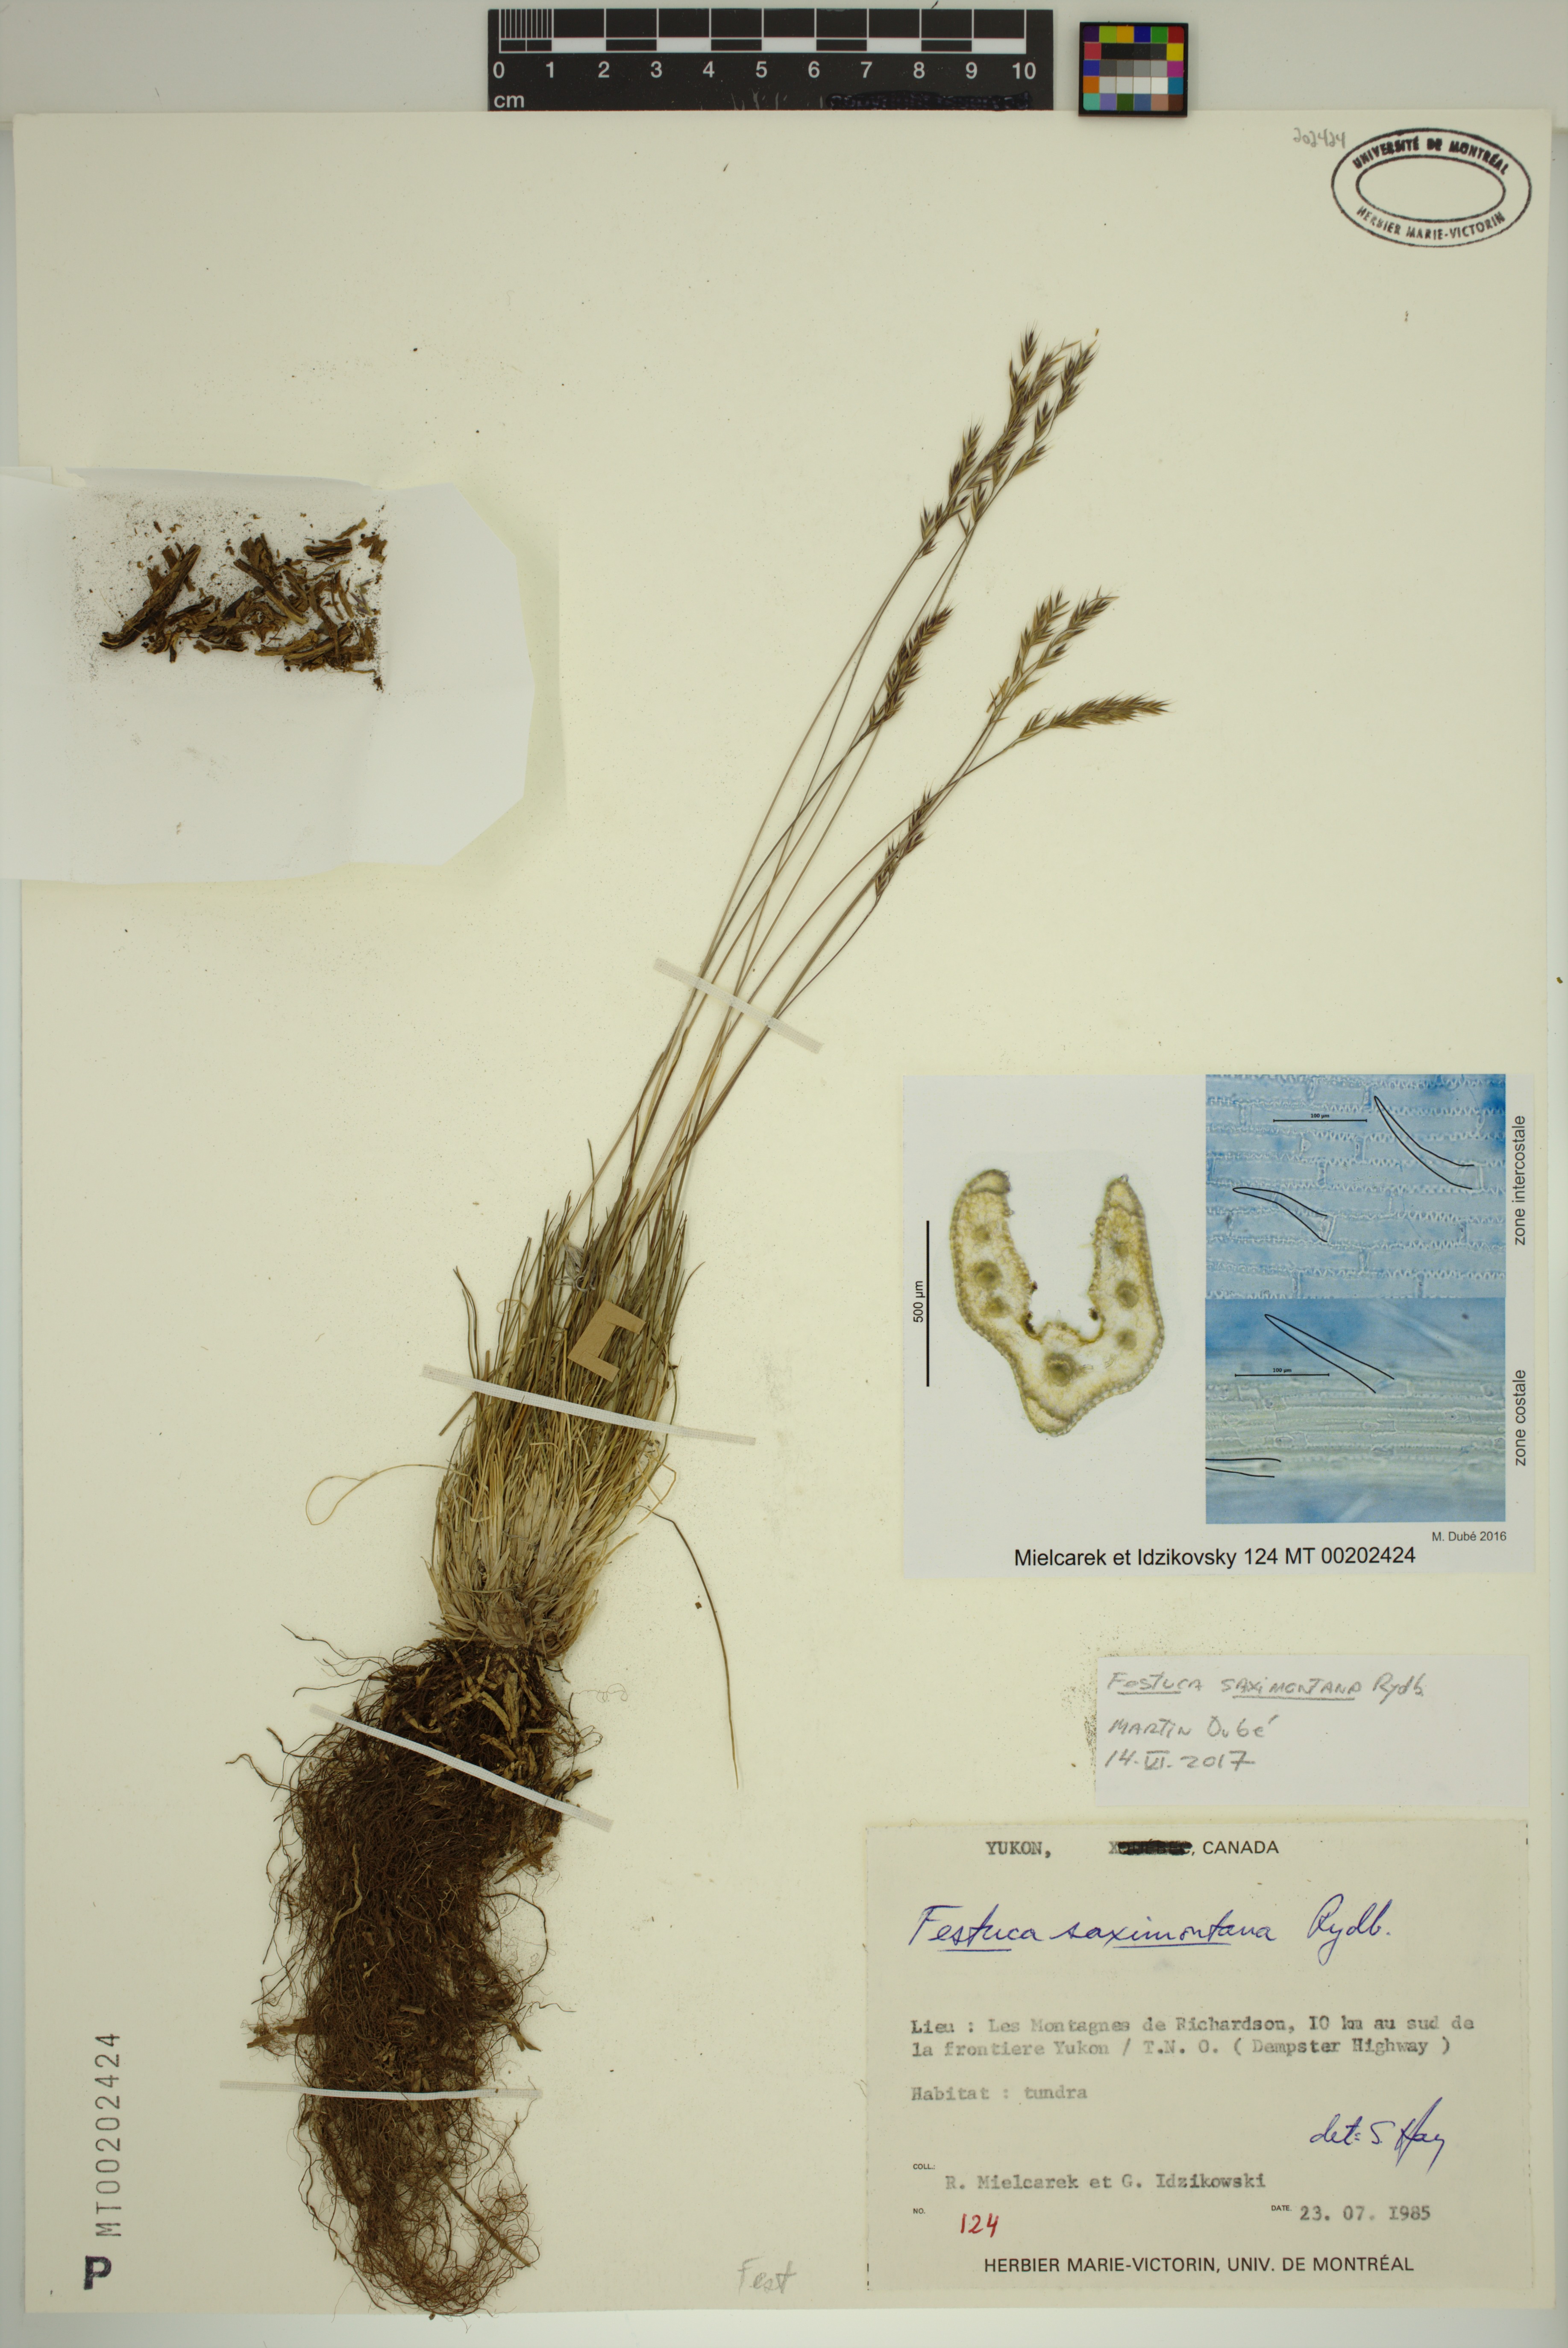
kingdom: Plantae
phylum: Tracheophyta
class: Liliopsida
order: Poales
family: Poaceae
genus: Festuca
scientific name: Festuca saximontana
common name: Mountain fescue
